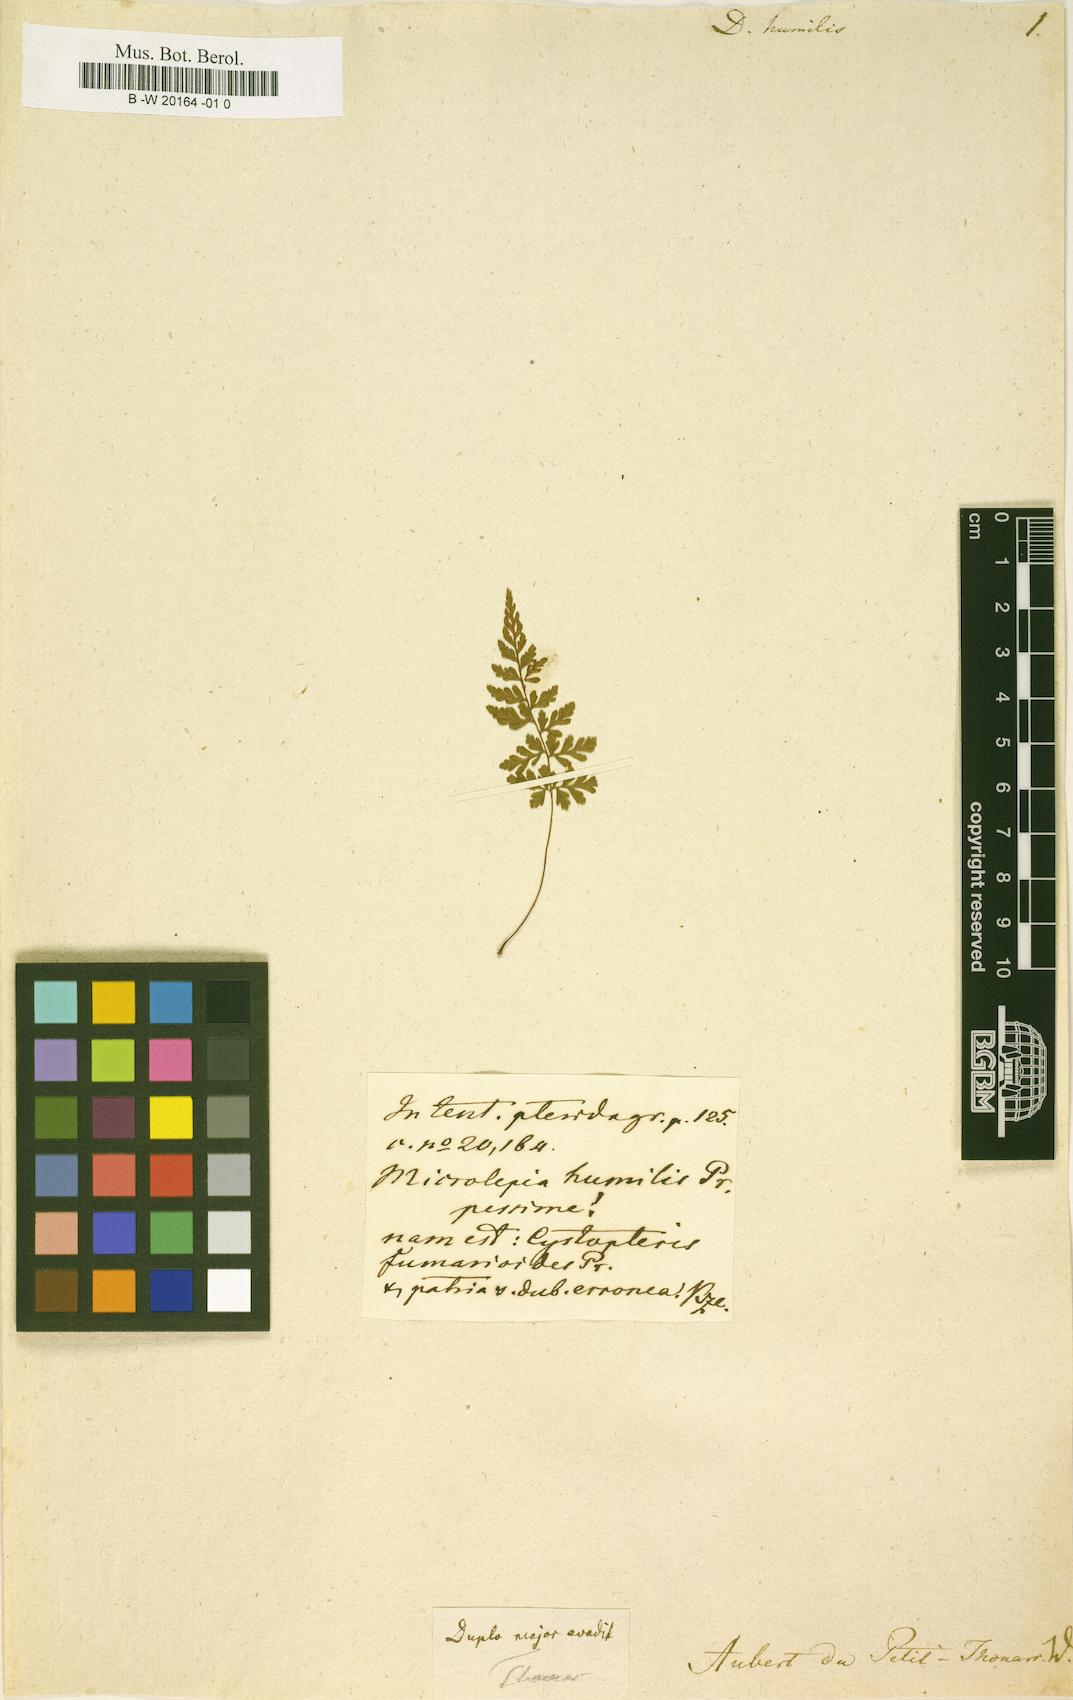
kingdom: Plantae
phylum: Tracheophyta
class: Polypodiopsida
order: Cyatheales
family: Dicksoniaceae
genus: Dicksonia
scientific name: Dicksonia
